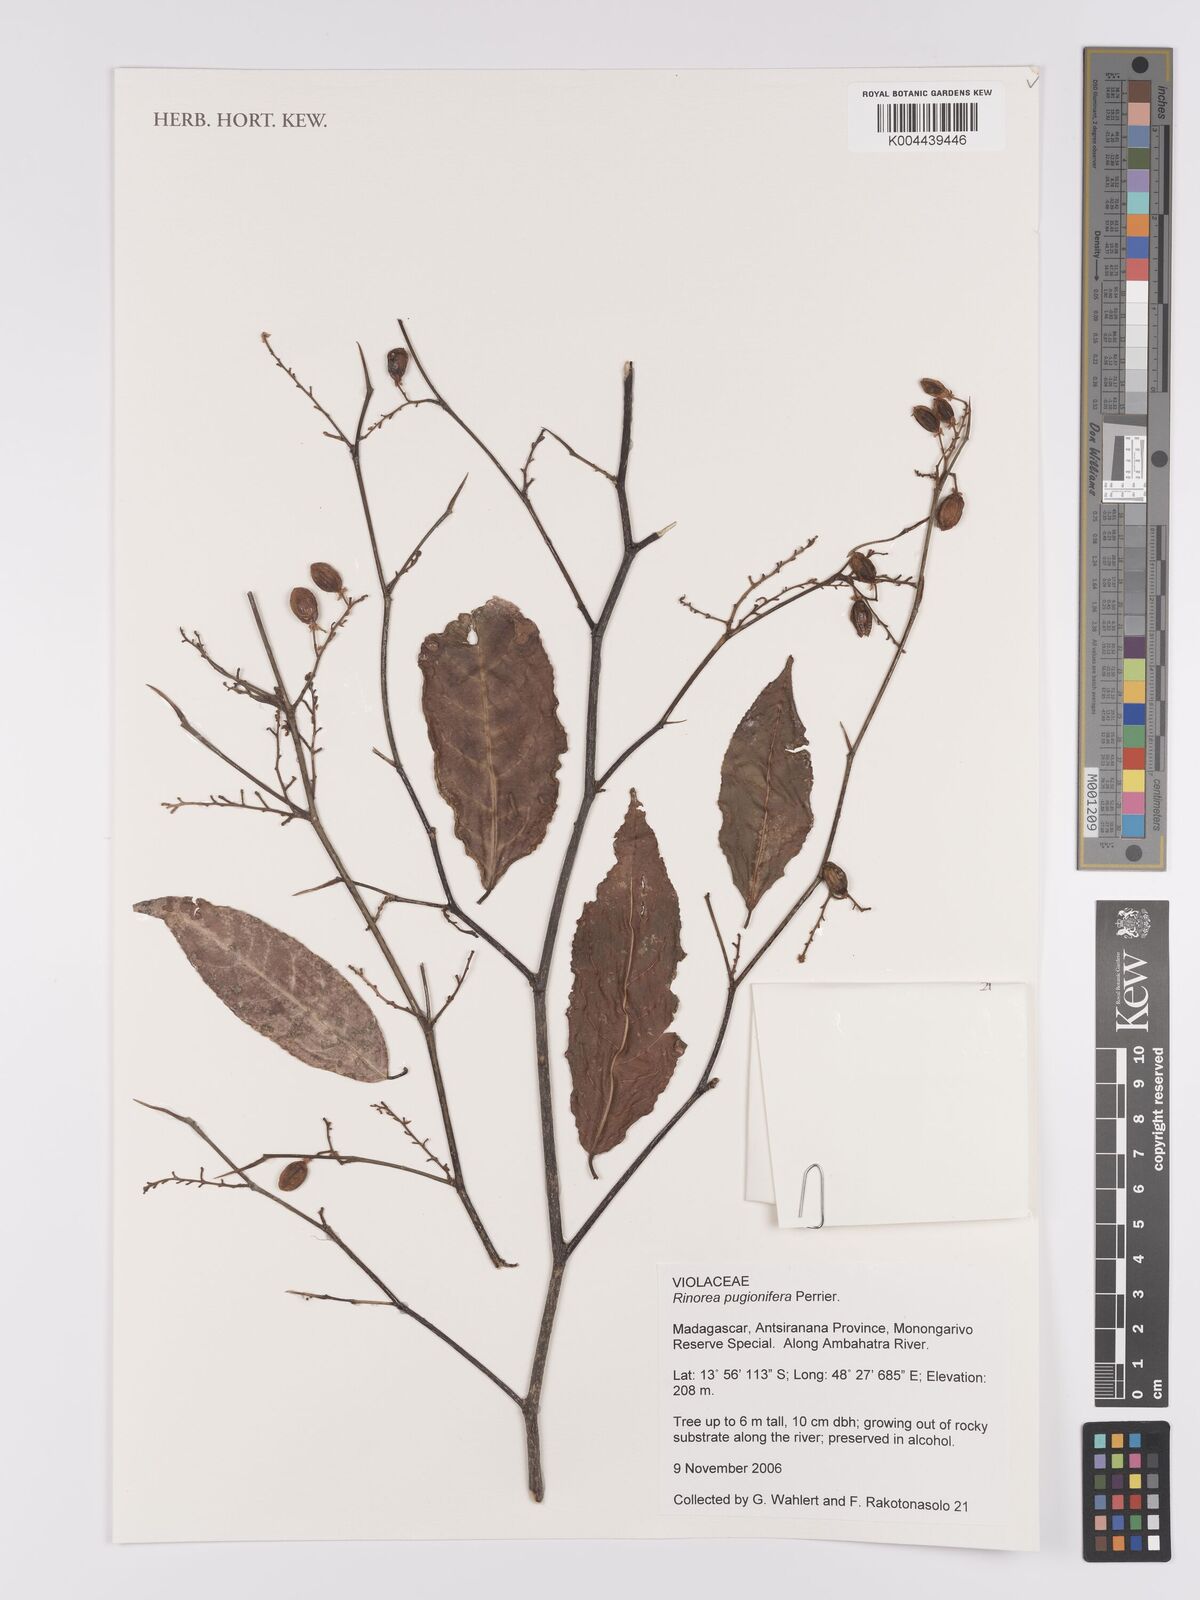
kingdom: Plantae
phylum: Tracheophyta
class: Magnoliopsida
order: Malpighiales
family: Violaceae
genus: Rinorea
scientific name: Rinorea pugionifera
